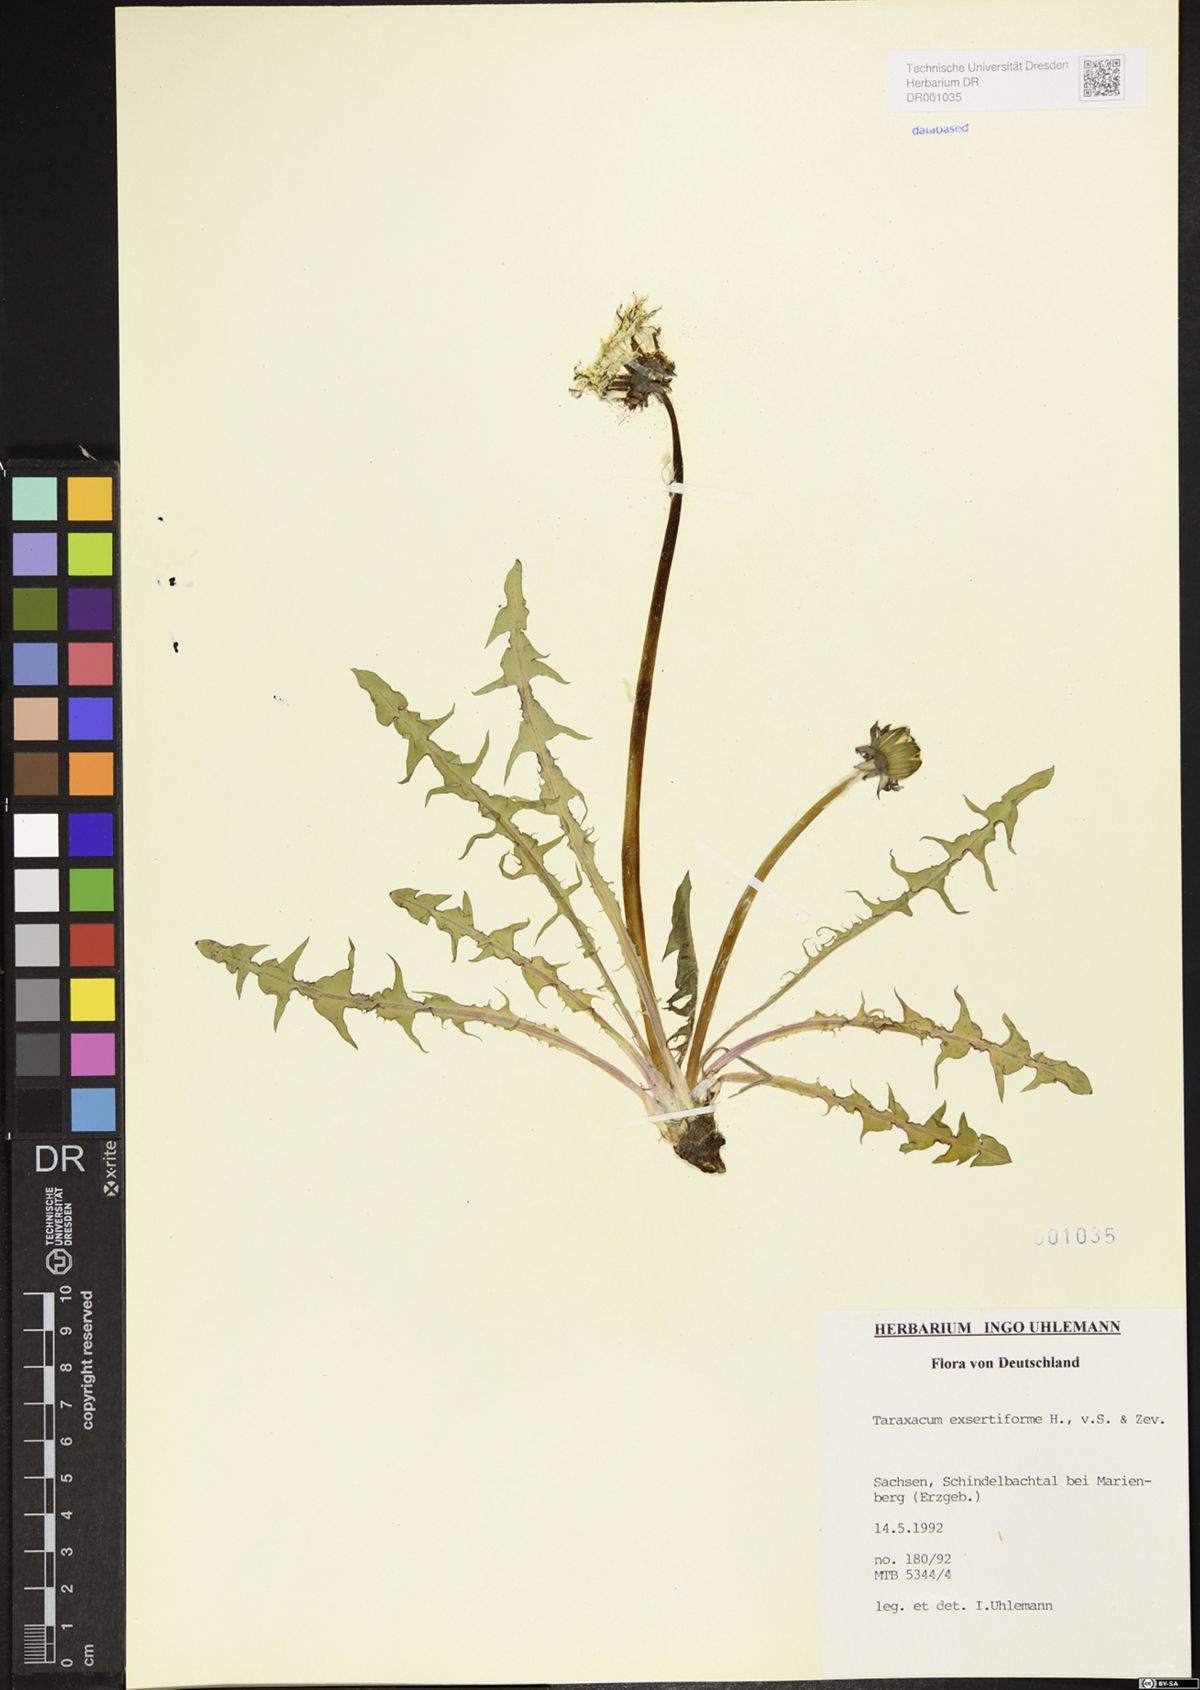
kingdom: Plantae
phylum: Tracheophyta
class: Magnoliopsida
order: Asterales
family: Asteraceae
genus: Taraxacum
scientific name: Taraxacum exsertiforme
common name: Erect-bracted dandelion
